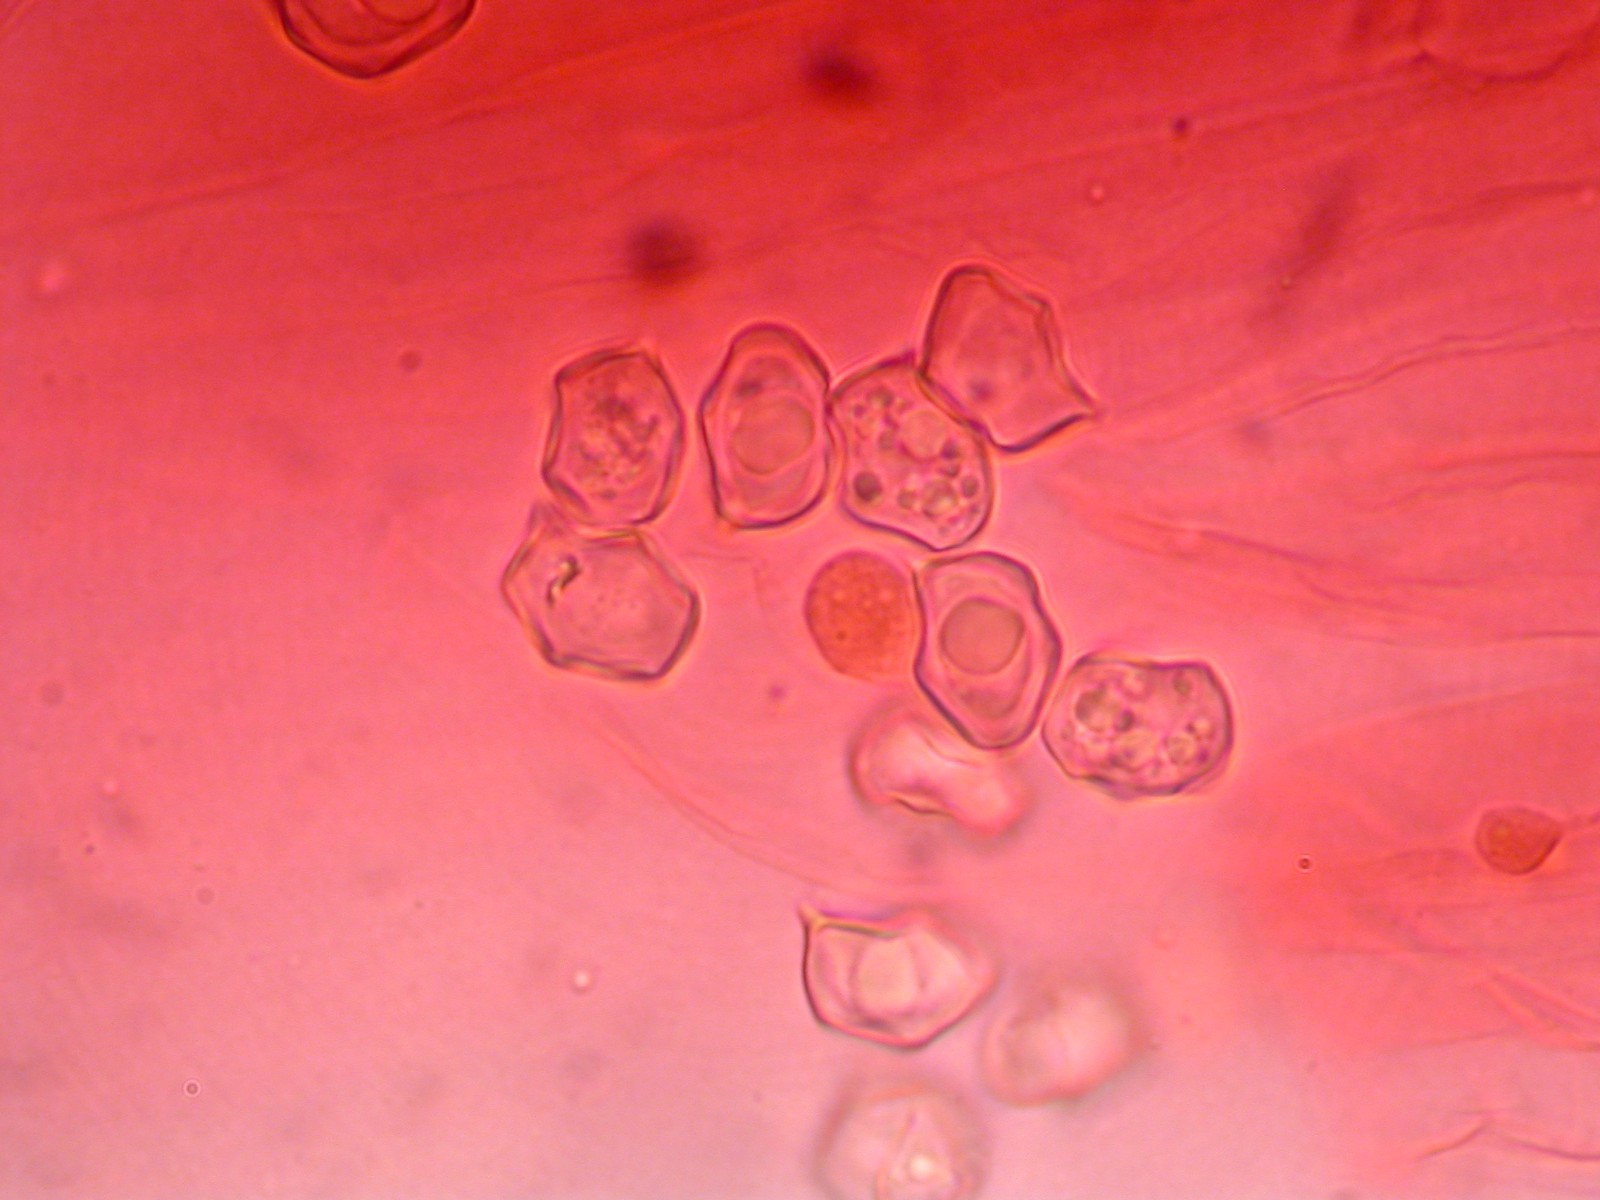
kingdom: Fungi
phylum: Basidiomycota
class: Agaricomycetes
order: Agaricales
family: Entolomataceae
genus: Entoloma
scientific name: Entoloma pallescens
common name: tidlig rødblad
